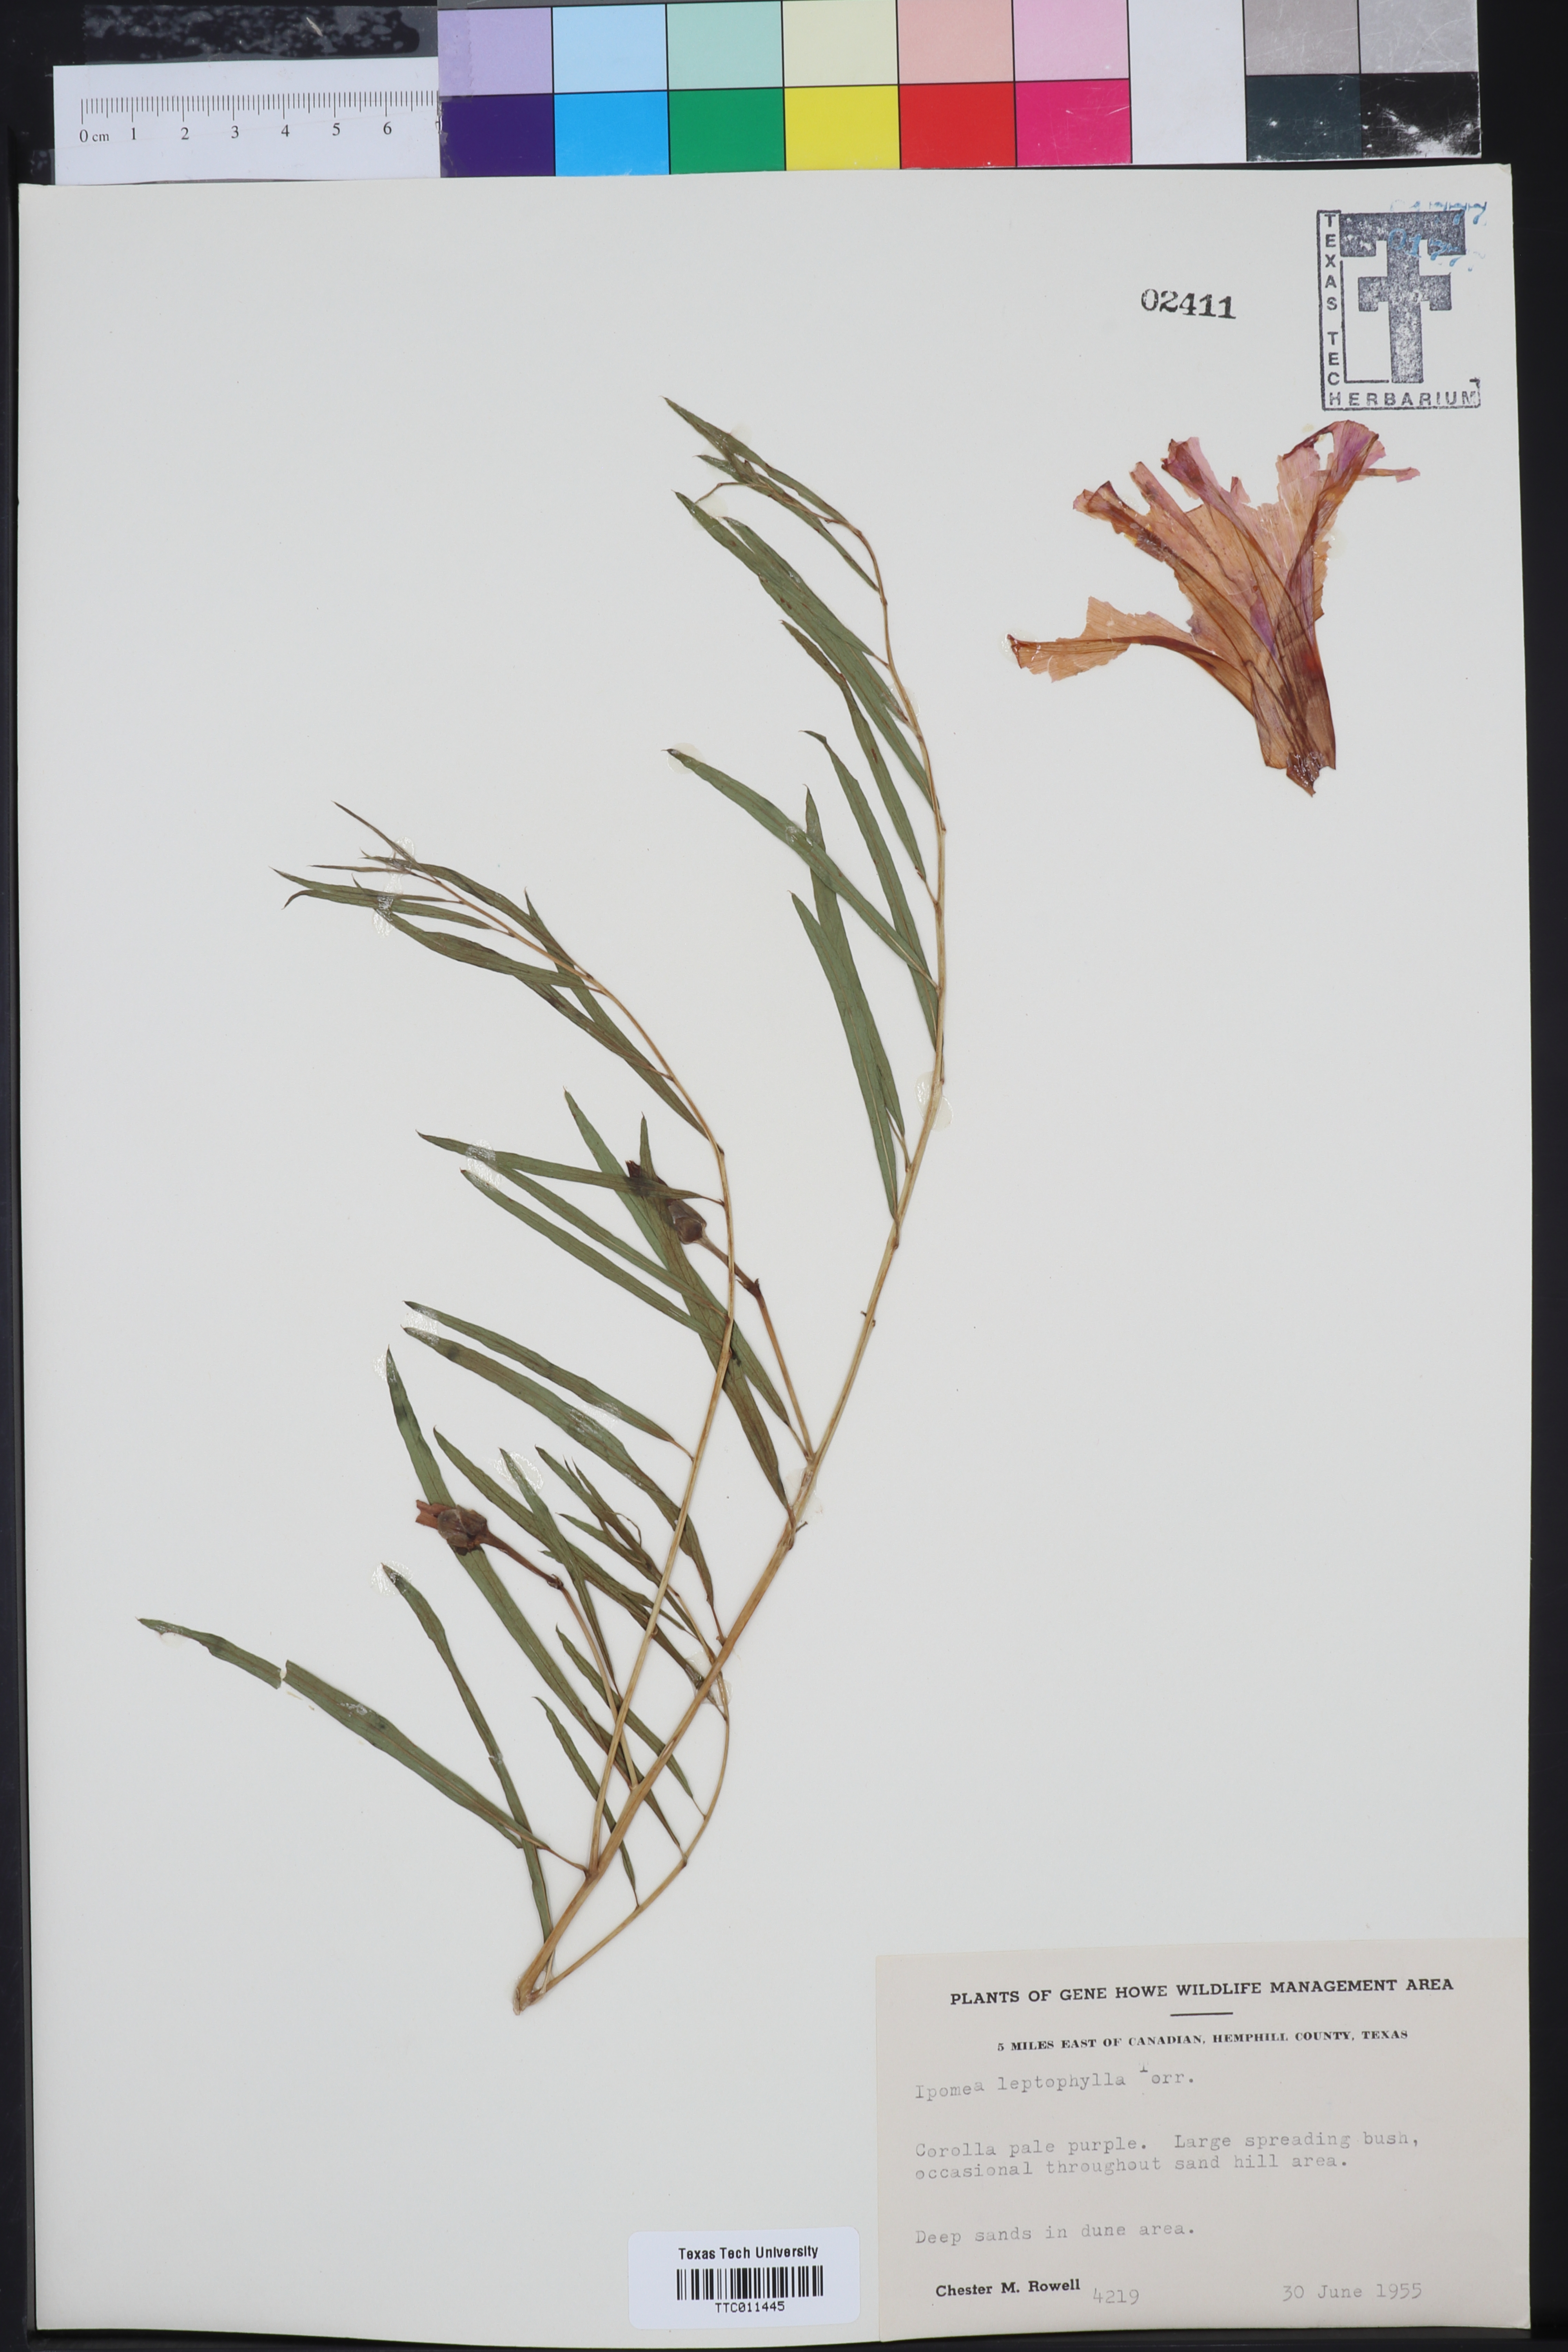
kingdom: Plantae
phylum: Tracheophyta
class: Magnoliopsida
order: Solanales
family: Convolvulaceae
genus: Ipomoea
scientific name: Ipomoea leptophylla
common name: Bush moonflower
